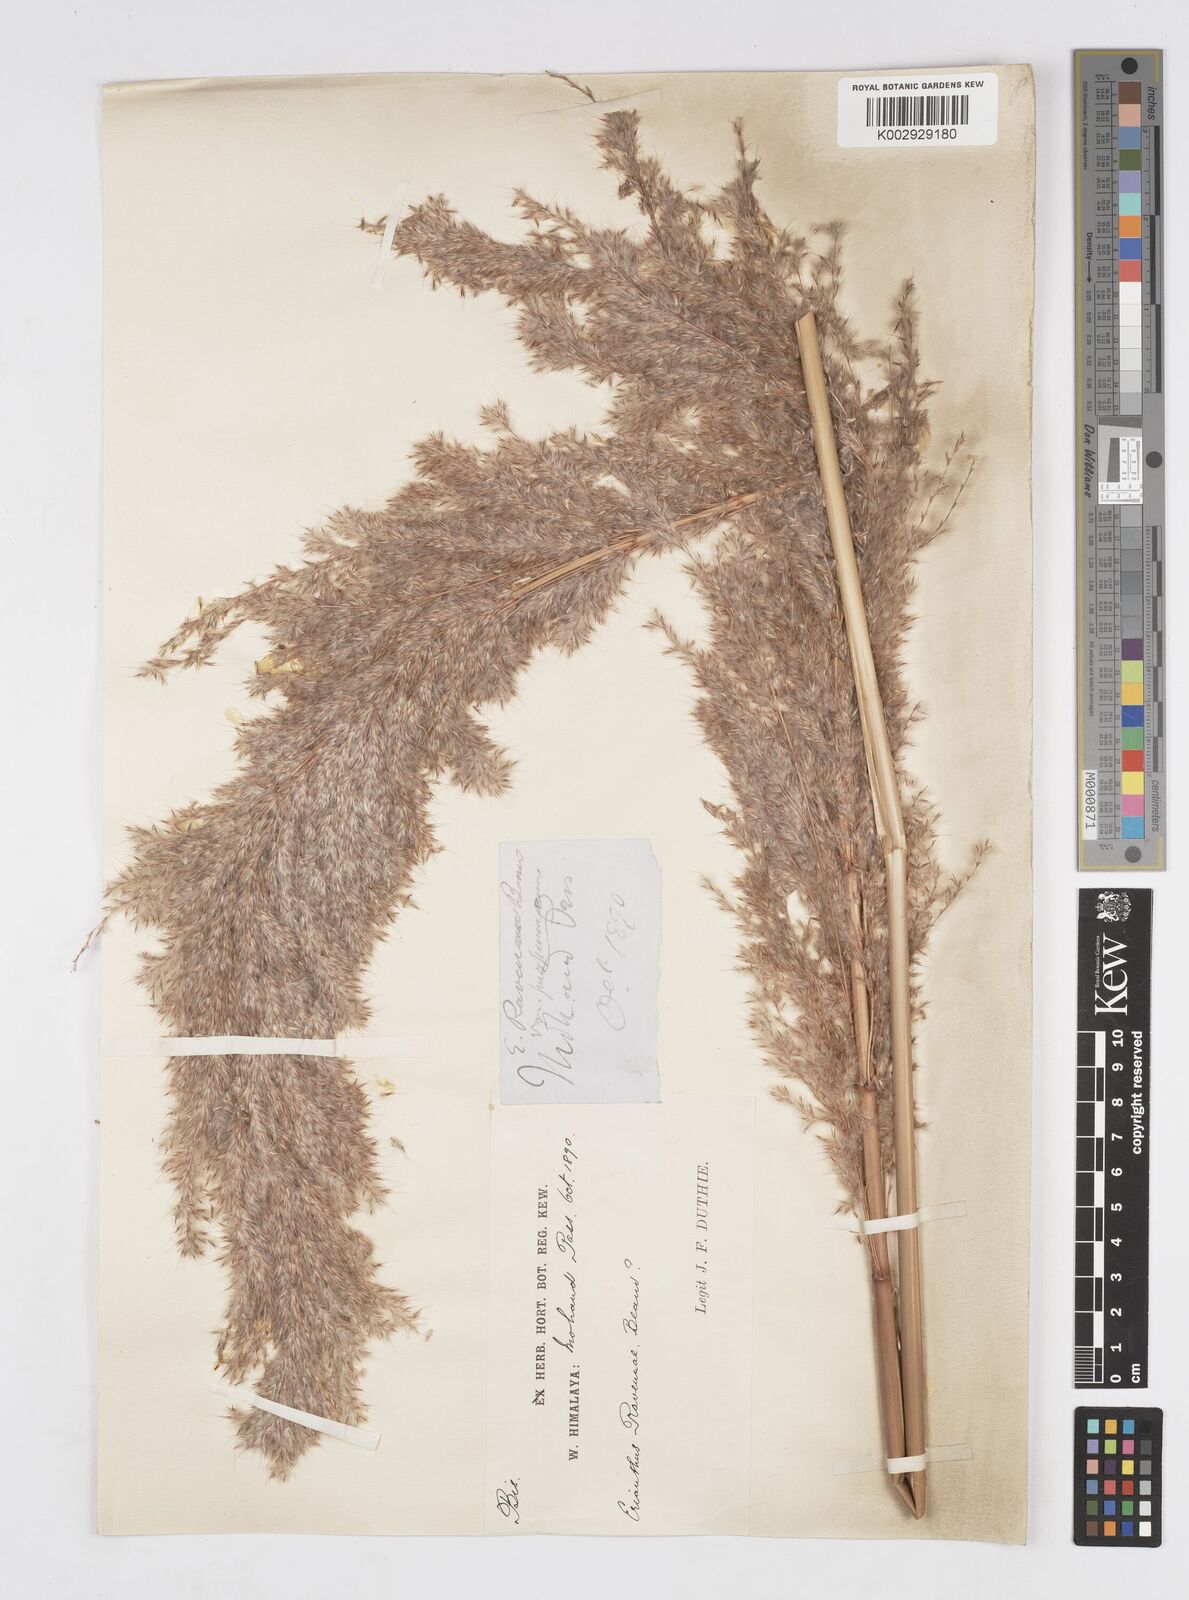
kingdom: Plantae
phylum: Tracheophyta
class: Liliopsida
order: Poales
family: Poaceae
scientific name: Poaceae
